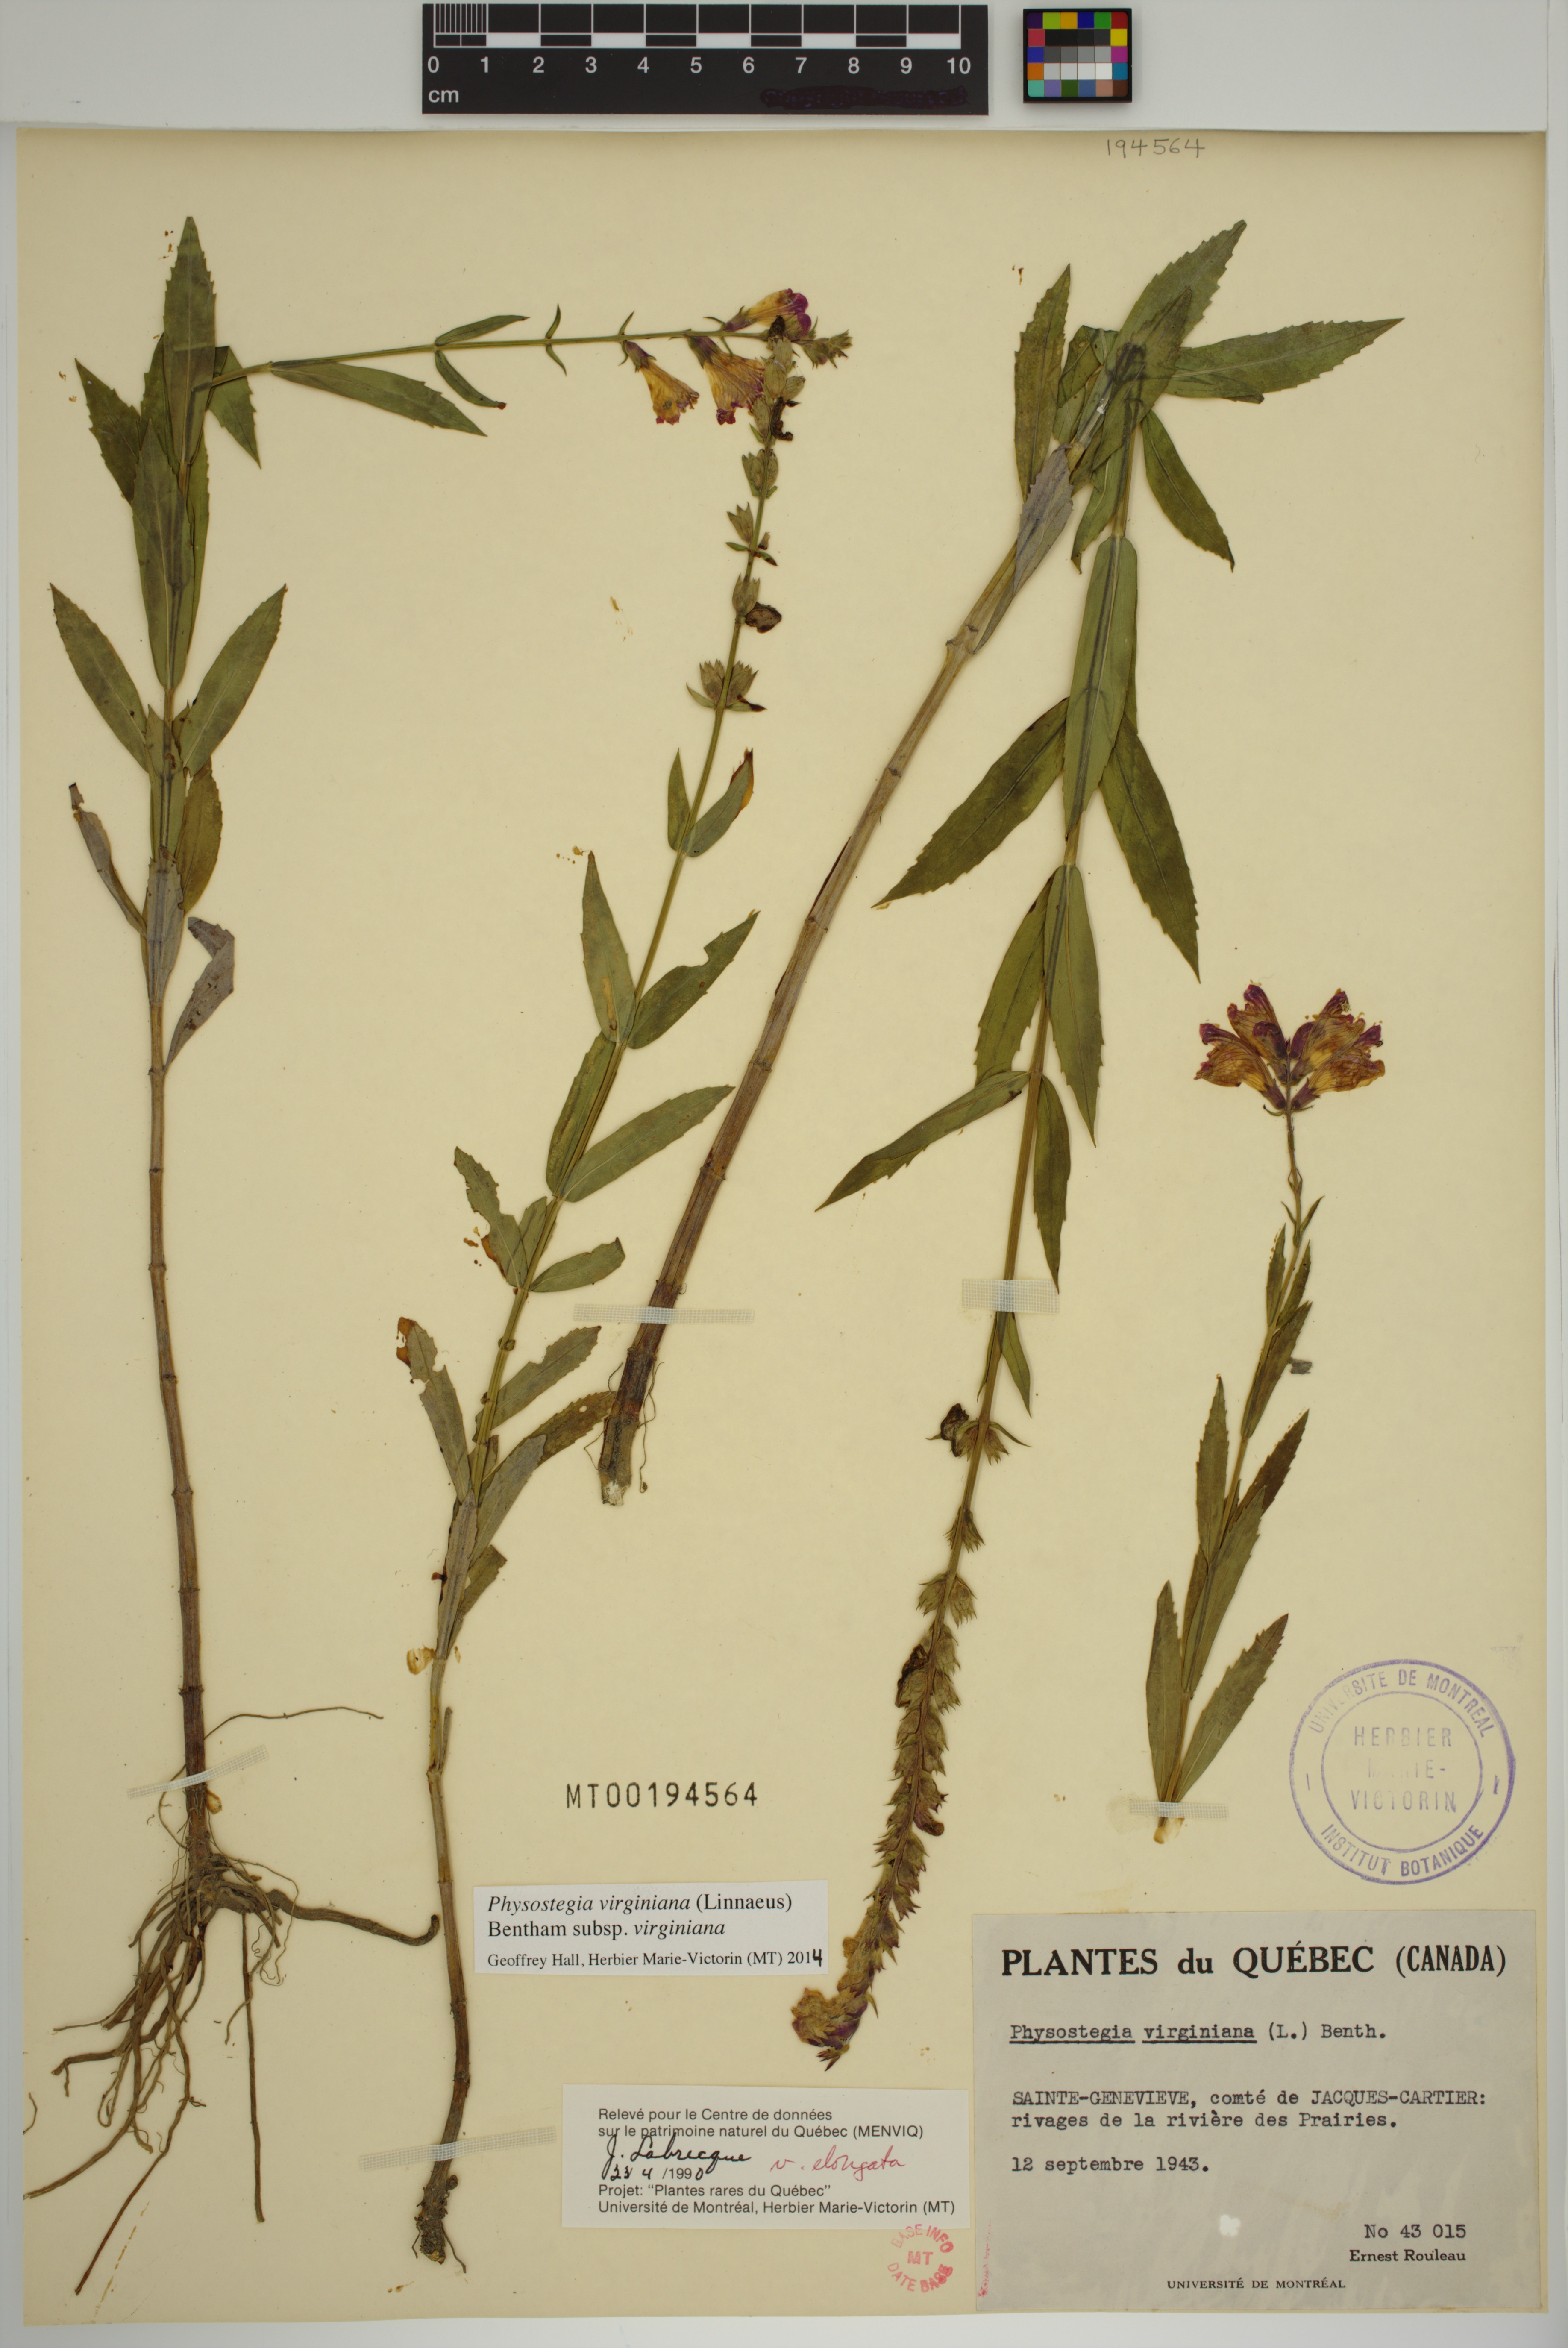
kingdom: Plantae
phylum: Tracheophyta
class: Magnoliopsida
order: Lamiales
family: Lamiaceae
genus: Physostegia
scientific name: Physostegia virginiana
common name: Obedient-plant
